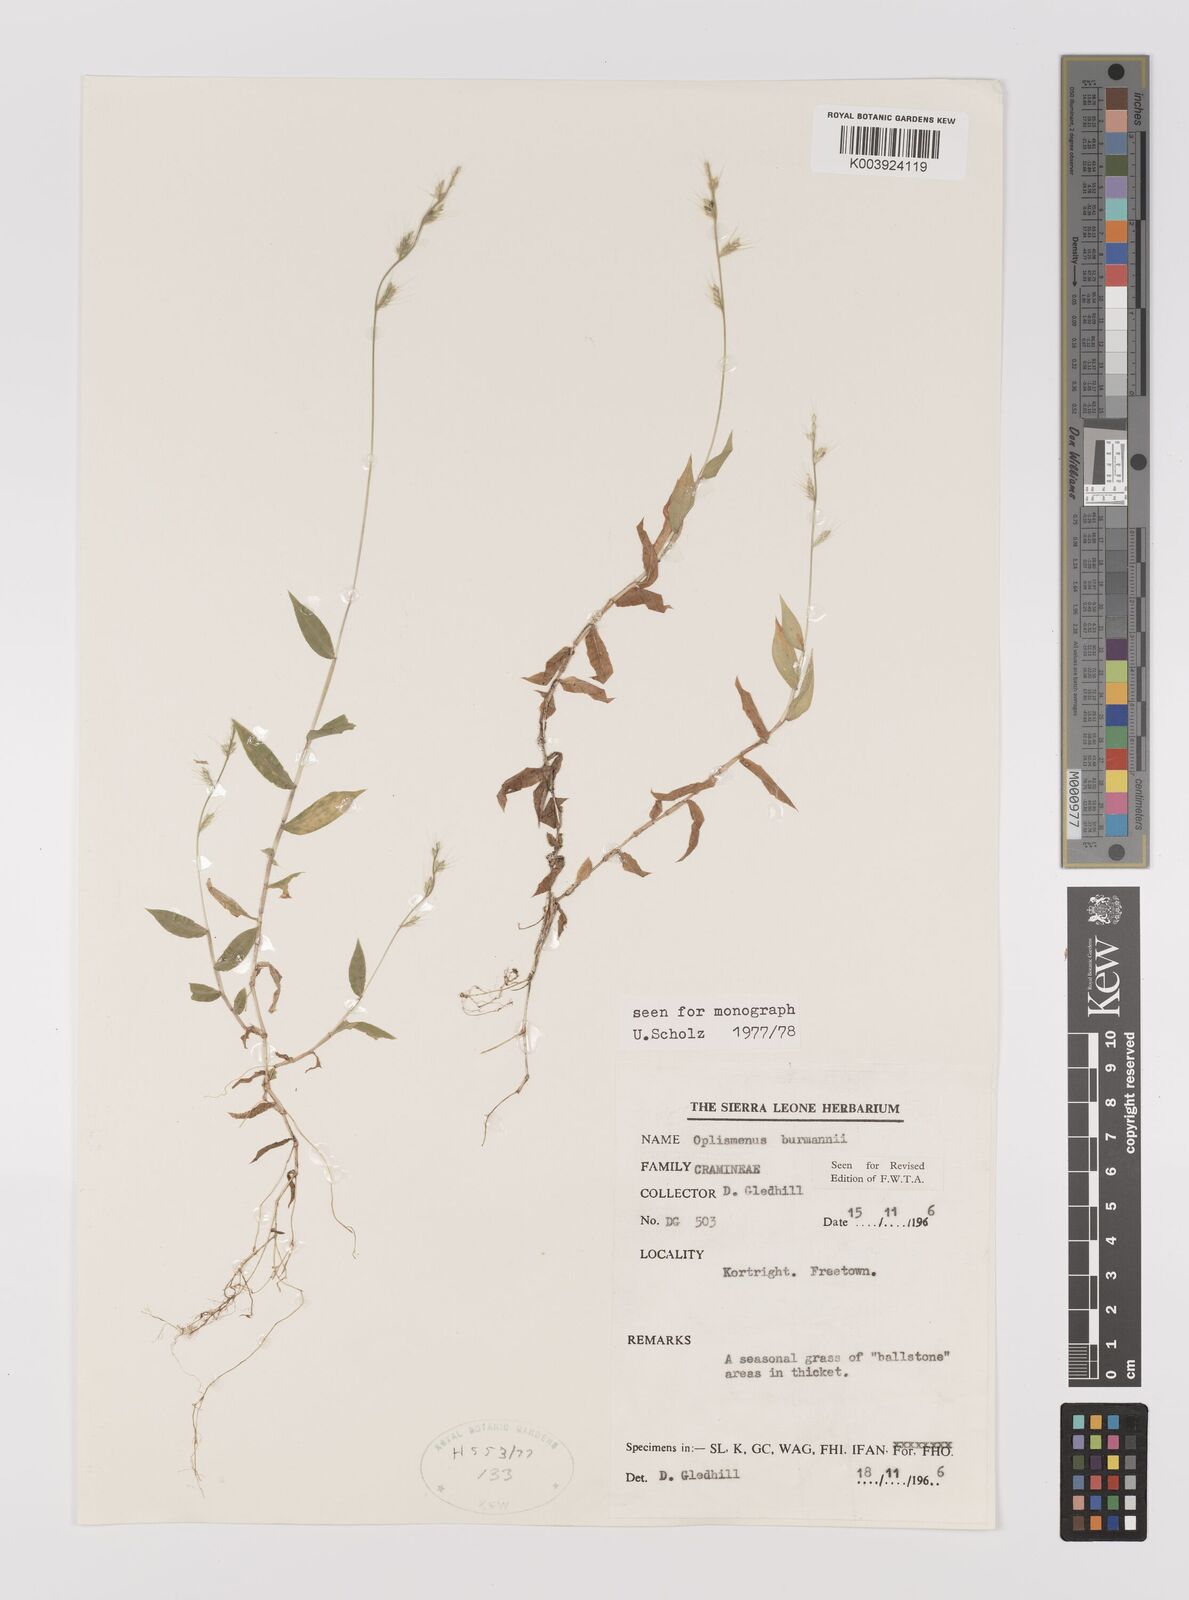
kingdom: Plantae
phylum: Tracheophyta
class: Liliopsida
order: Poales
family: Poaceae
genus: Oplismenus
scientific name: Oplismenus burmanni
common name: Burmann's basketgrass
